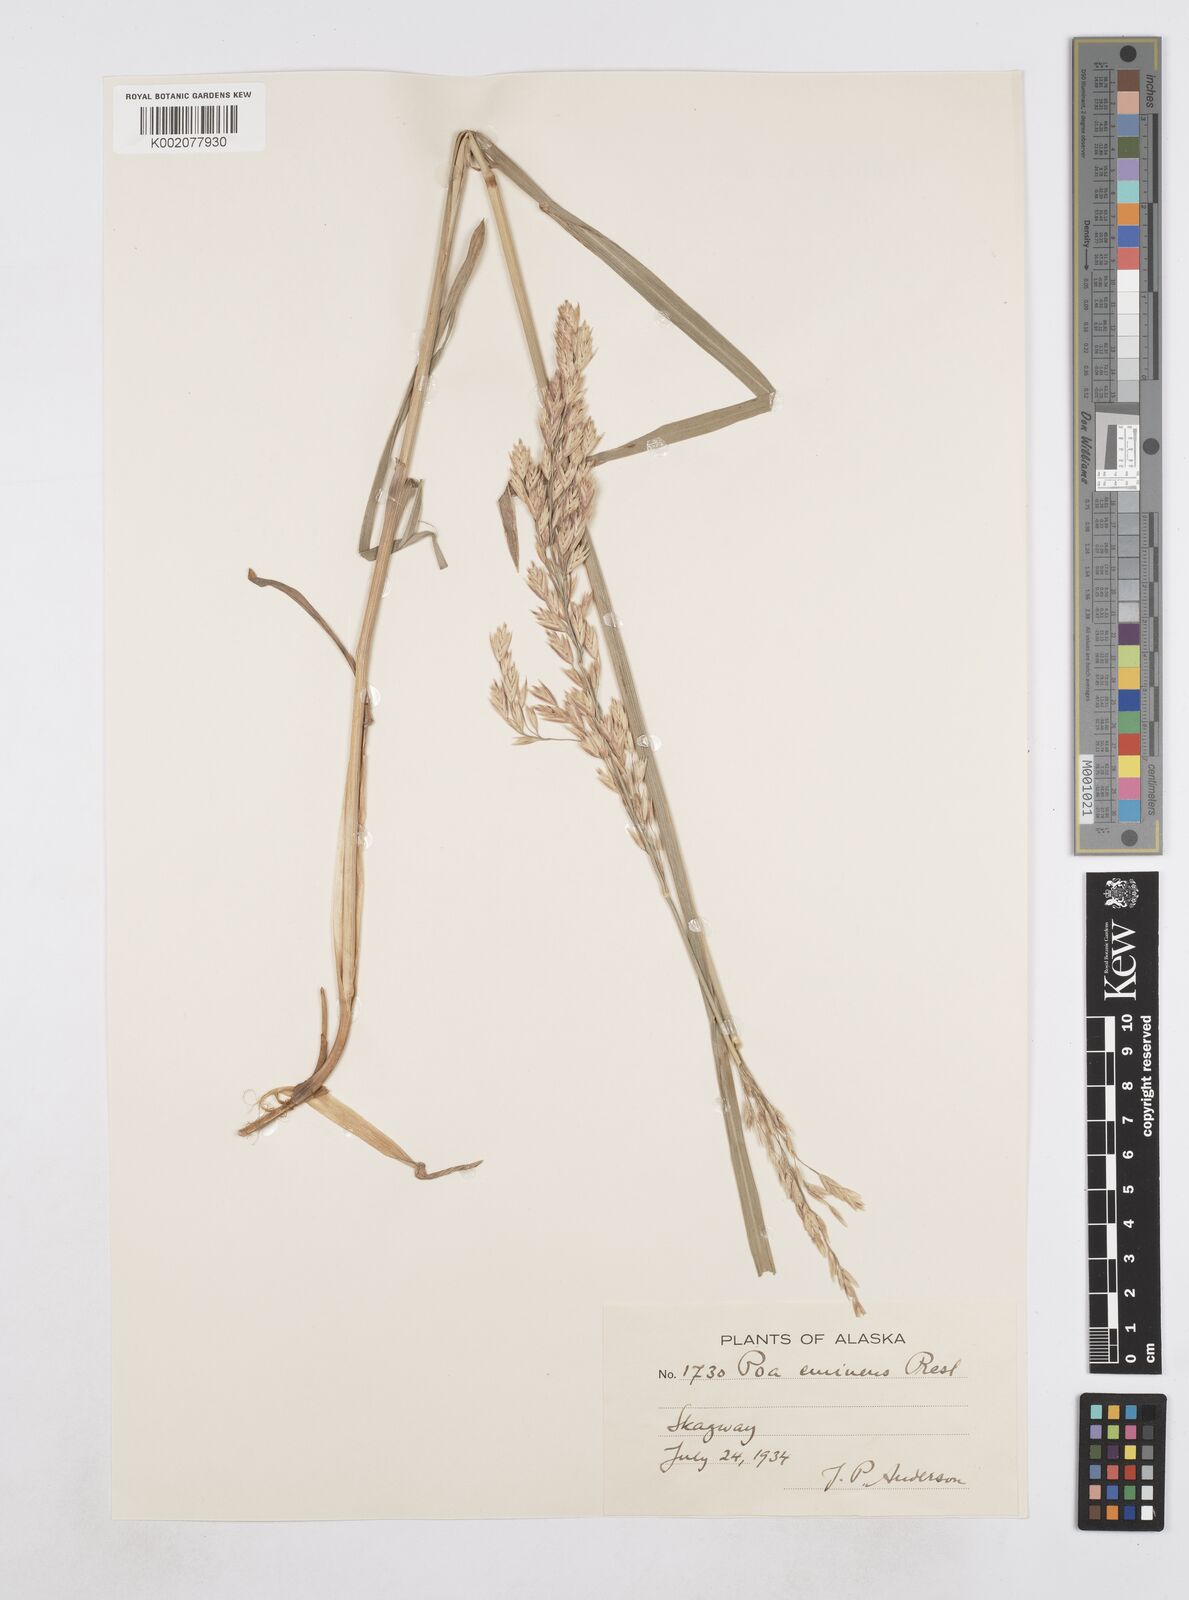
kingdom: Plantae
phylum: Tracheophyta
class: Liliopsida
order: Poales
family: Poaceae
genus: Arctopoa
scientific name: Arctopoa eminens
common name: Eminent bluegrass
